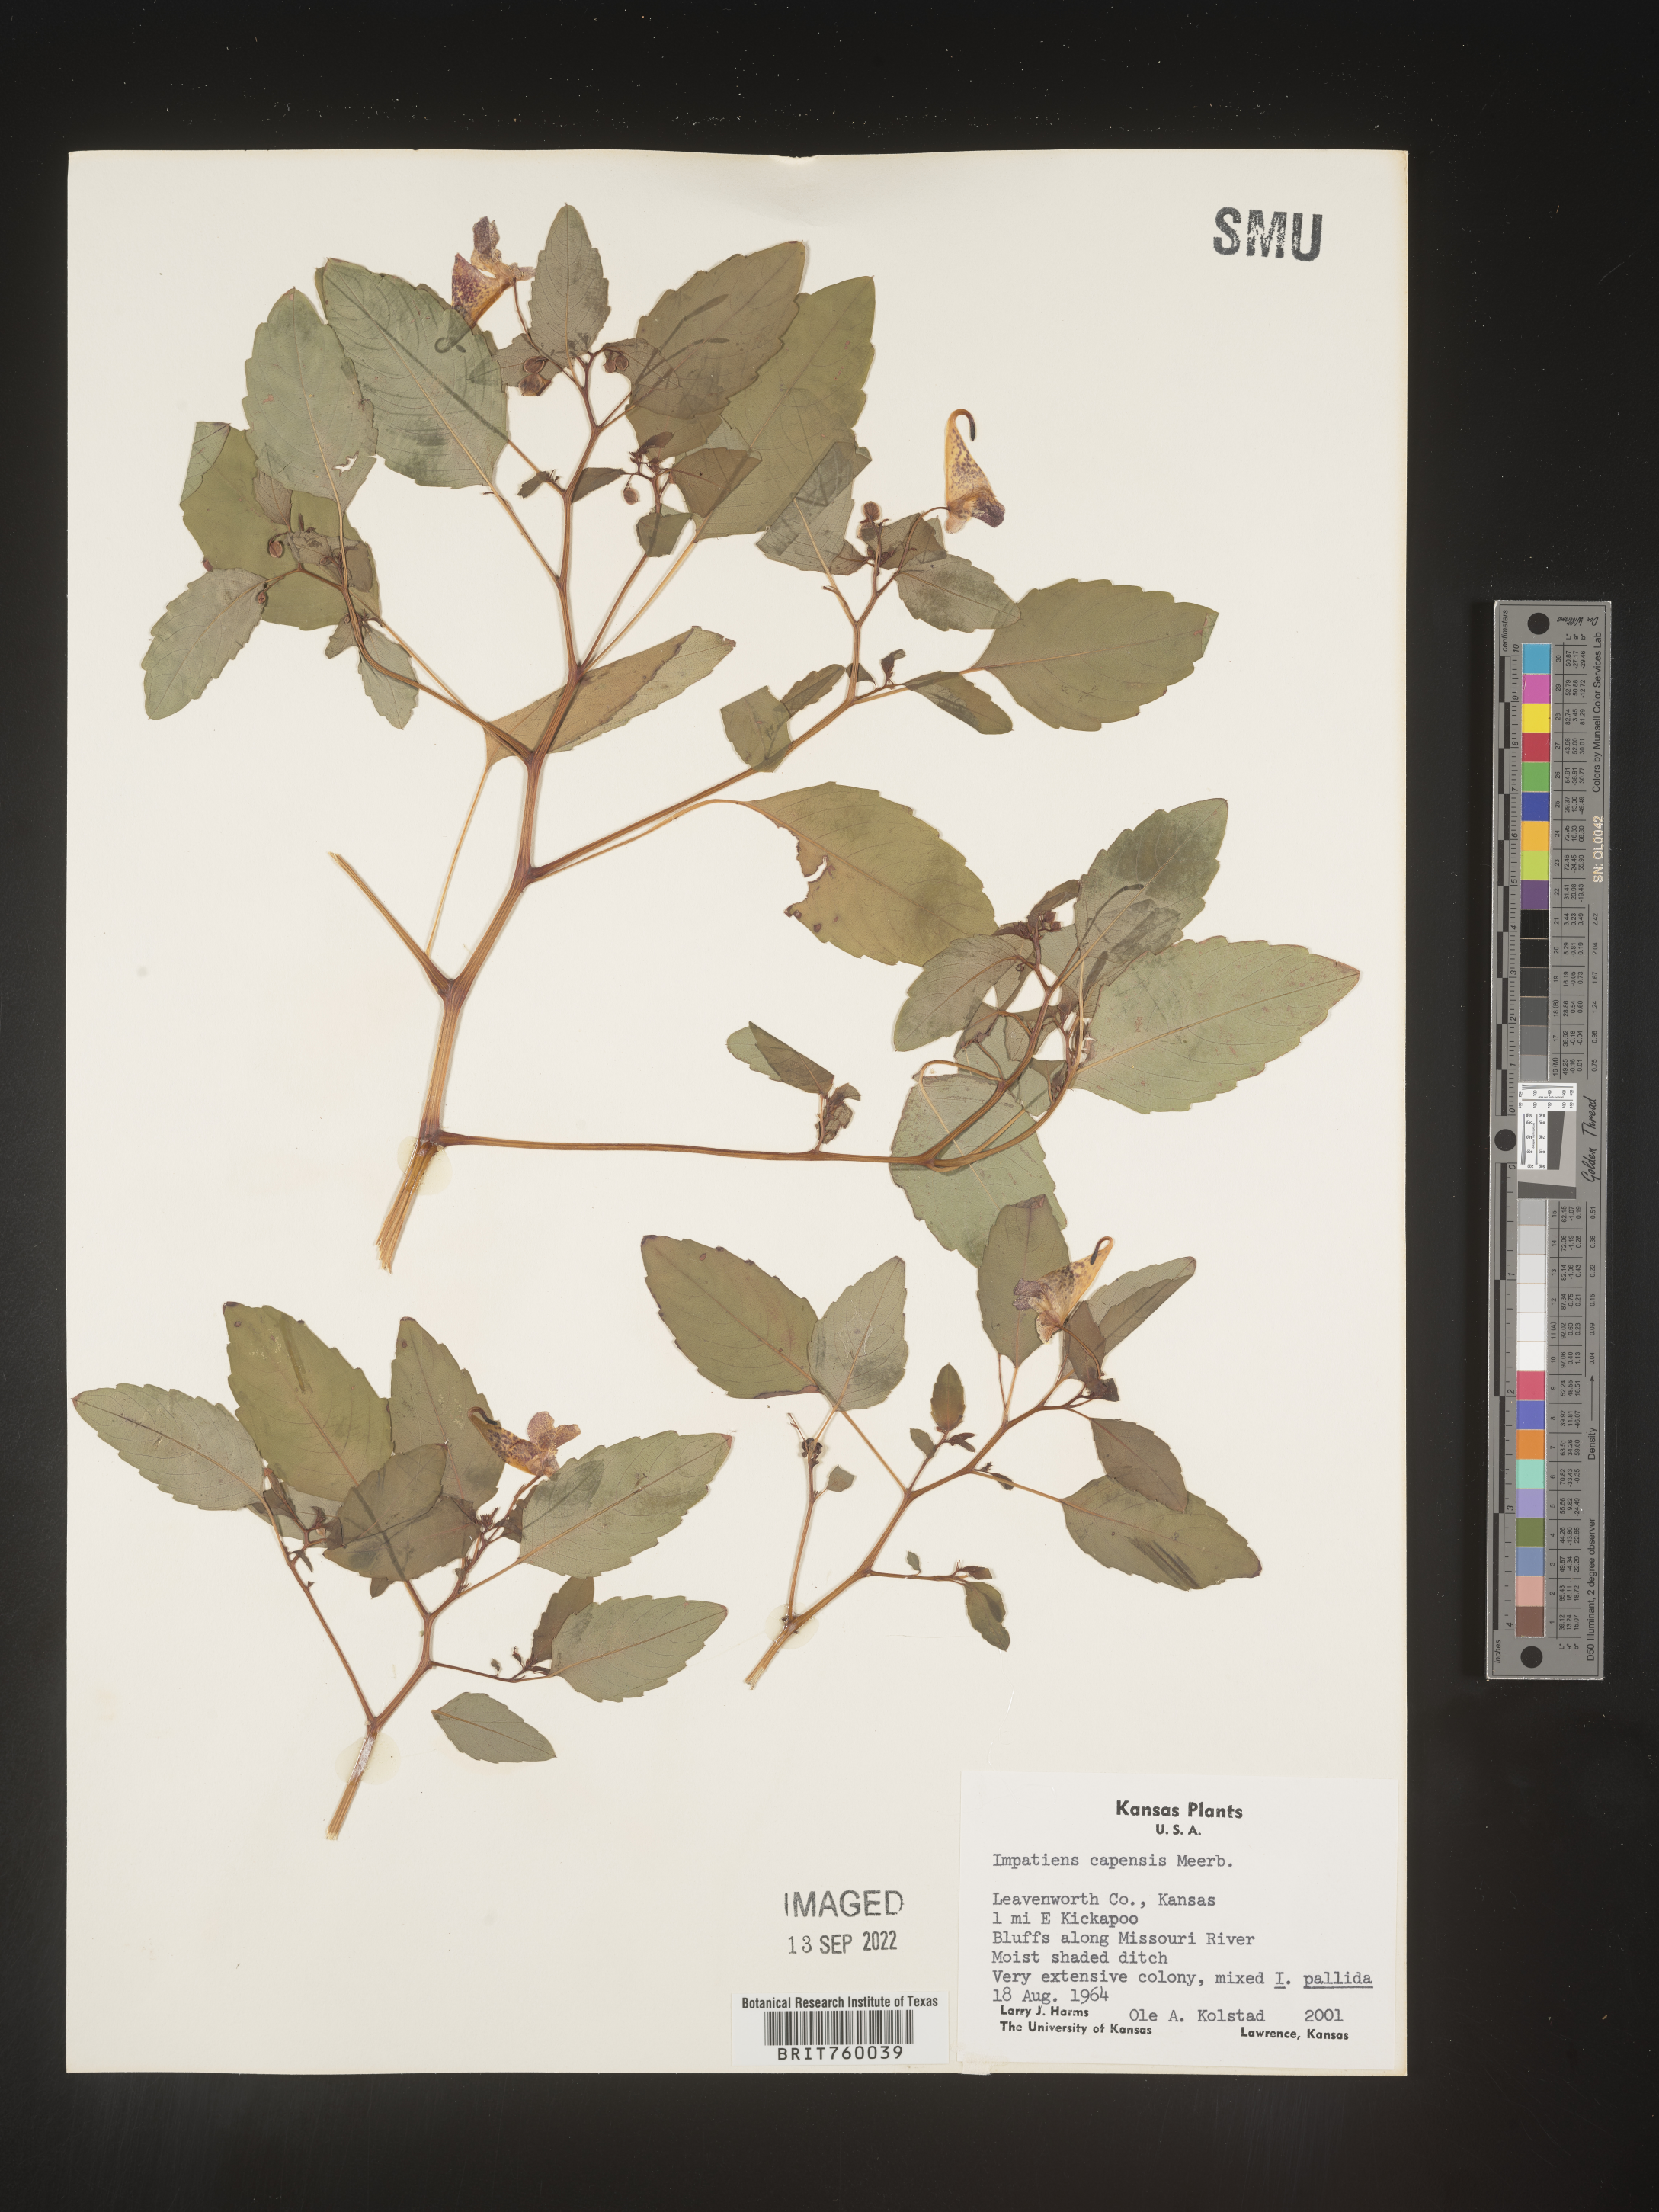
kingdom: Plantae
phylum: Tracheophyta
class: Magnoliopsida
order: Ericales
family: Balsaminaceae
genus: Impatiens
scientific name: Impatiens capensis
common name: Orange balsam
